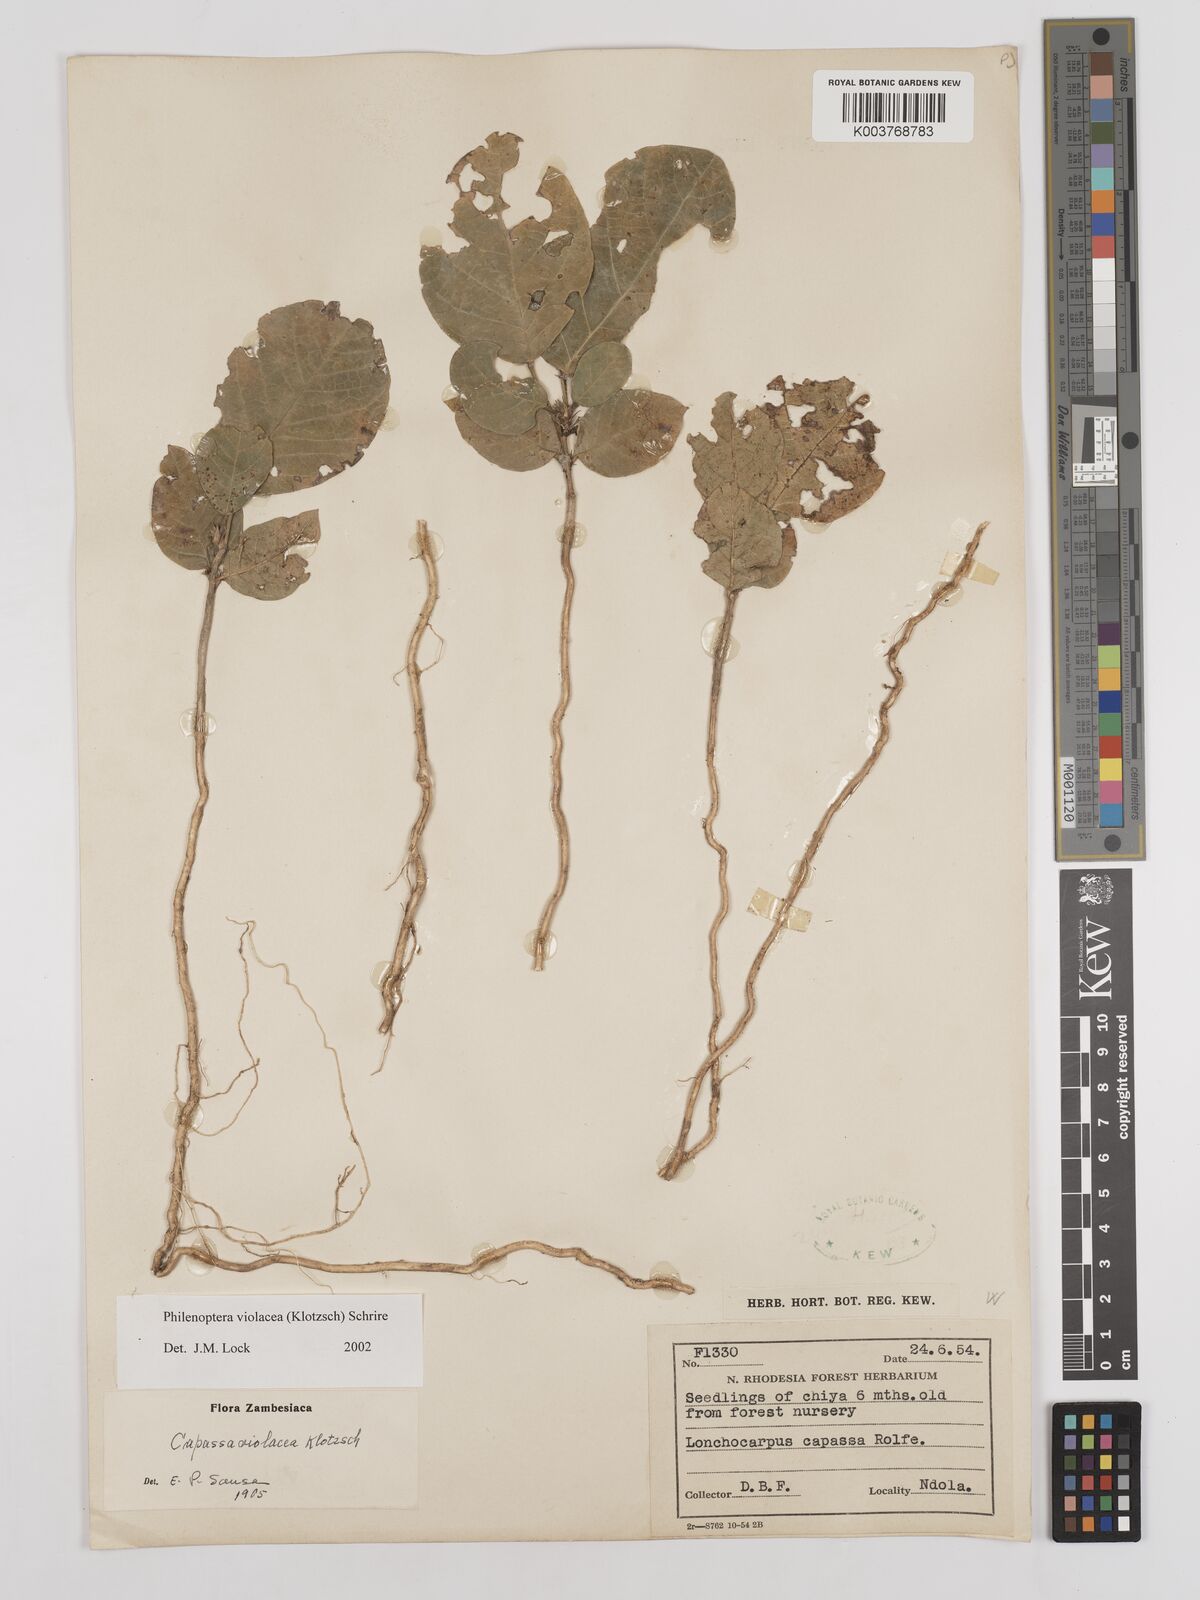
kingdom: Plantae
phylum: Tracheophyta
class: Magnoliopsida
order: Fabales
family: Fabaceae
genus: Philenoptera
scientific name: Philenoptera violacea
